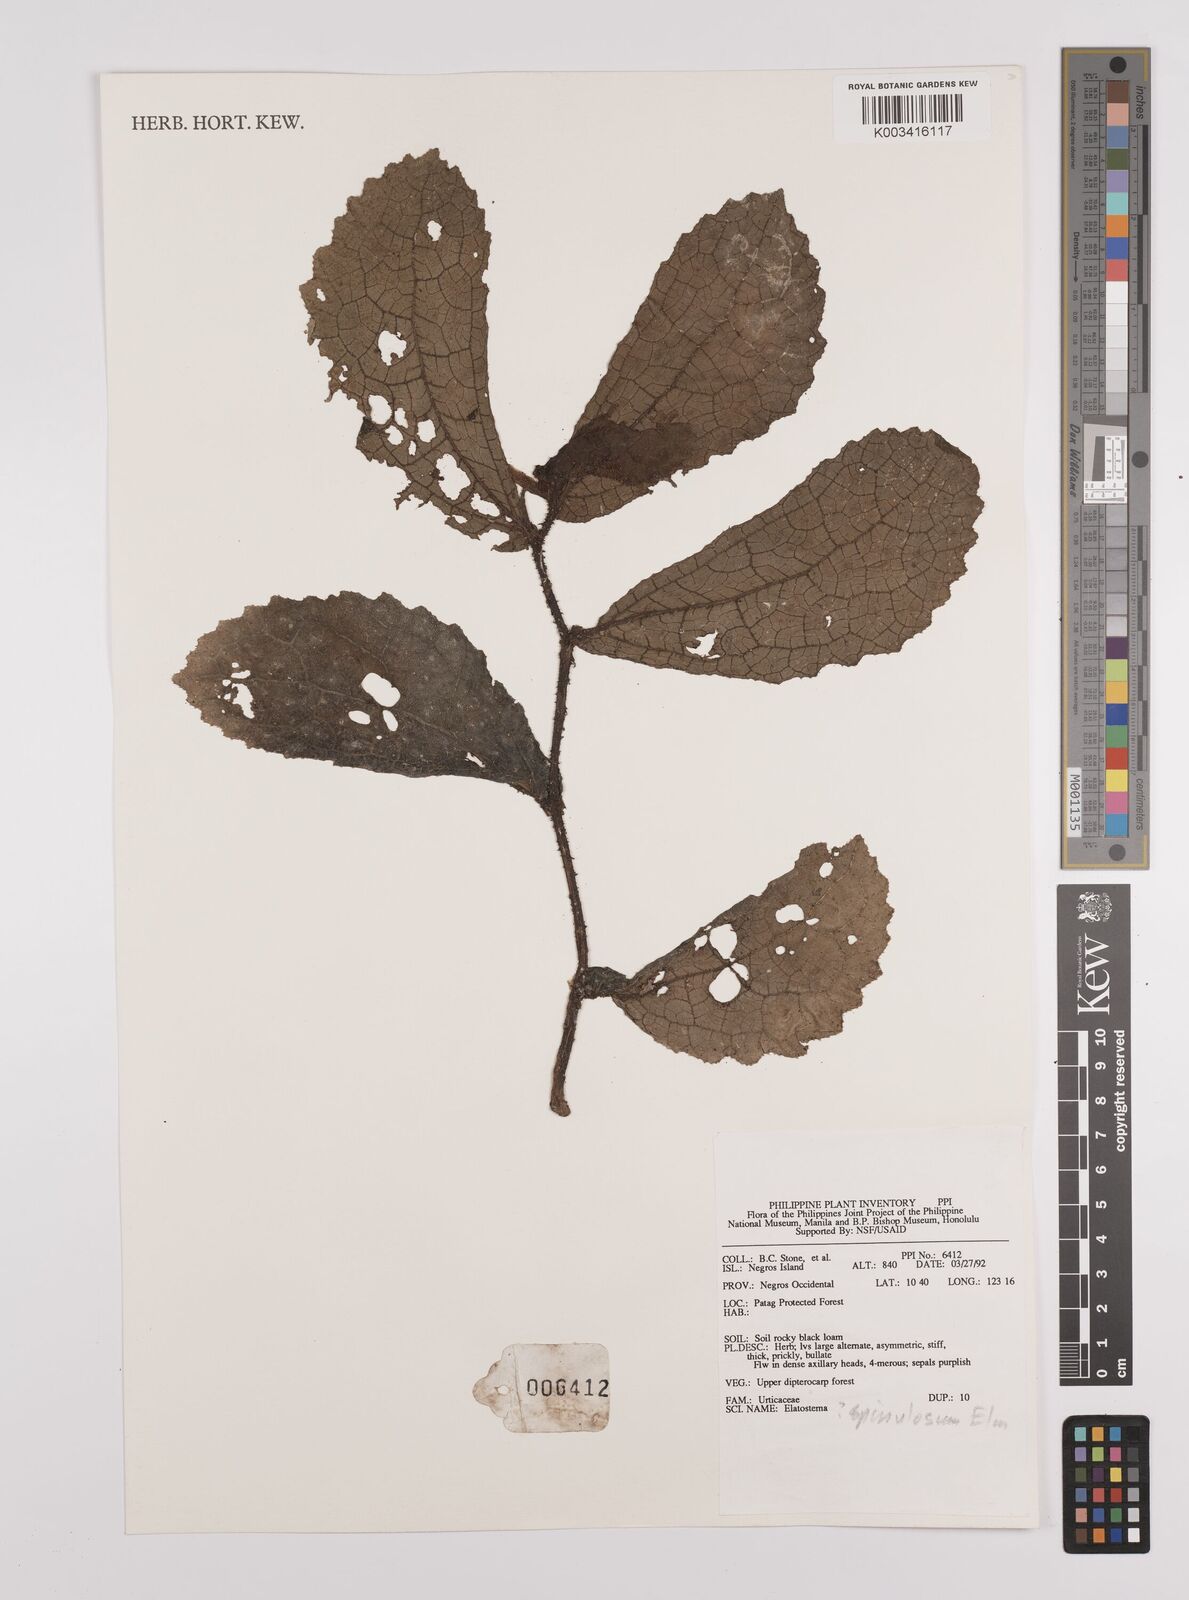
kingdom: Plantae
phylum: Tracheophyta
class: Magnoliopsida
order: Rosales
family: Urticaceae
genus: Elatostema
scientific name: Elatostema spinulosum
